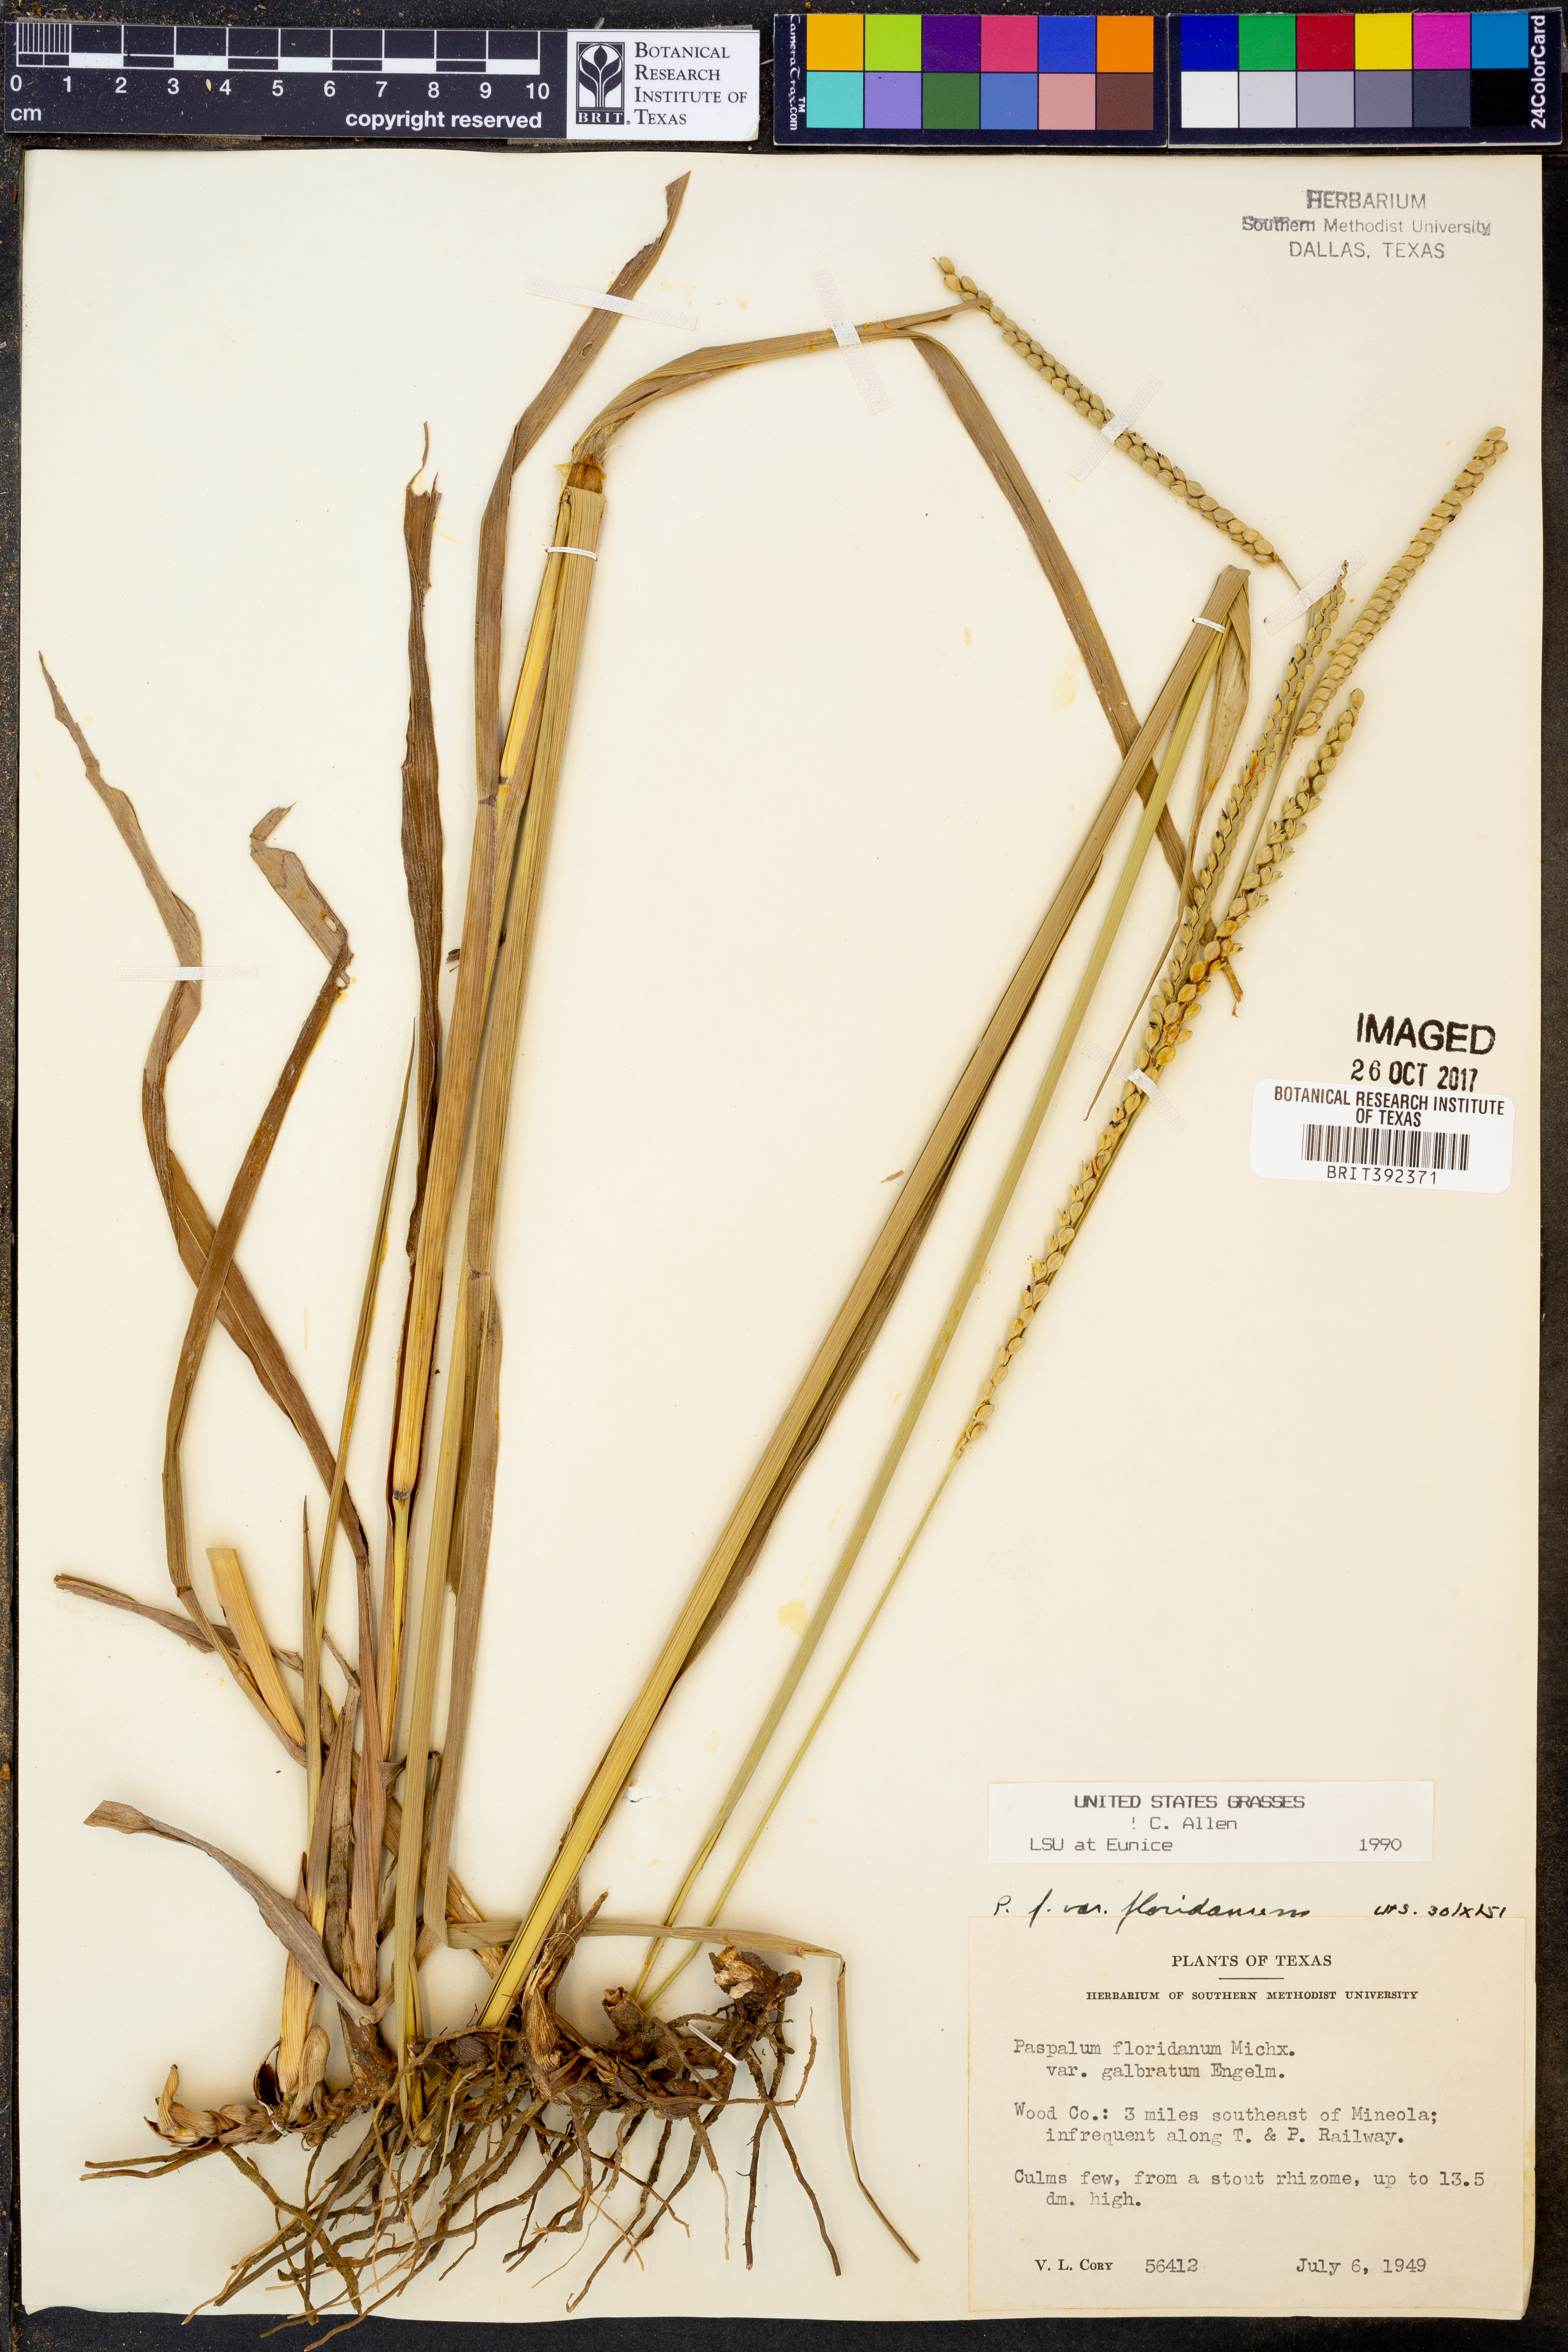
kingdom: Plantae
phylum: Tracheophyta
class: Liliopsida
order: Poales
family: Poaceae
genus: Paspalum
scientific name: Paspalum floridanum
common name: Florida paspalum
